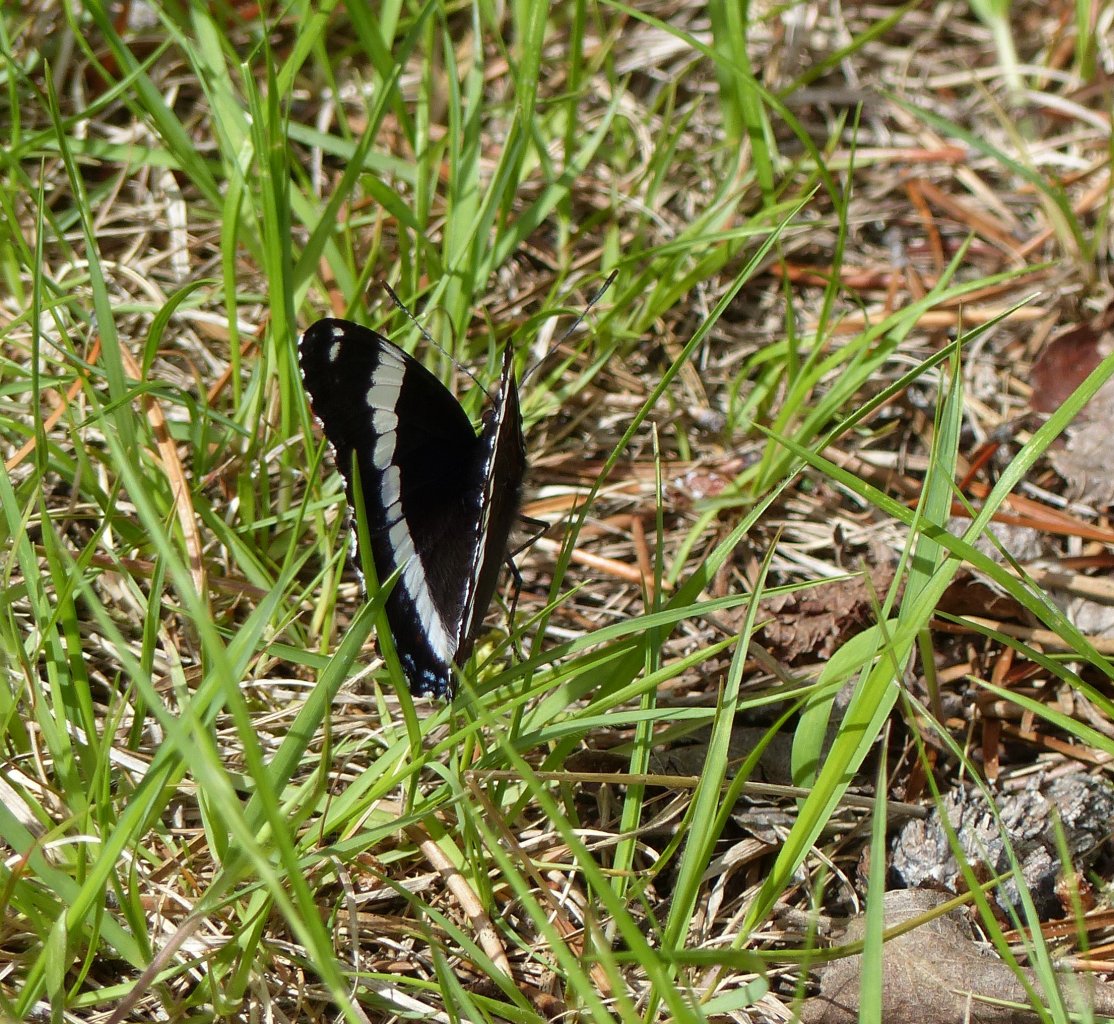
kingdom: Animalia
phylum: Arthropoda
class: Insecta
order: Lepidoptera
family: Nymphalidae
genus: Limenitis
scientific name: Limenitis arthemis
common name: Red-spotted Admiral
